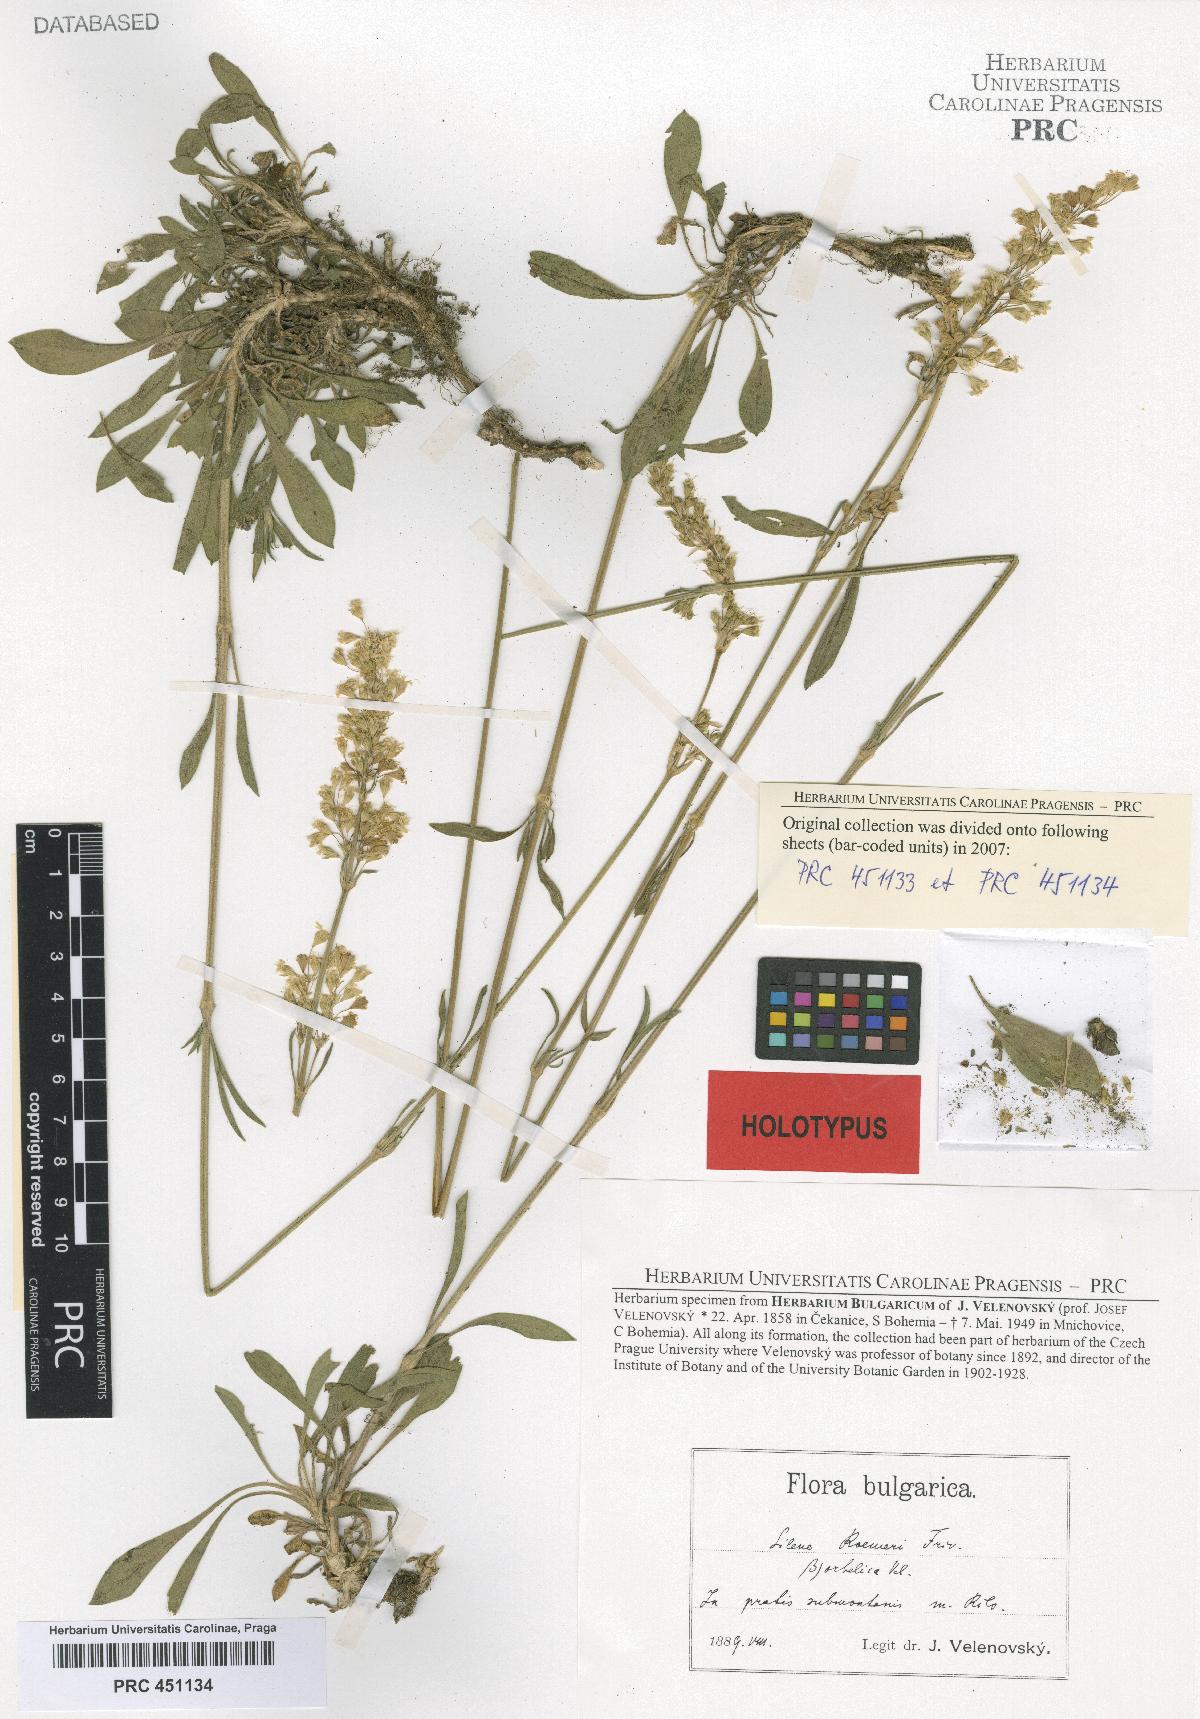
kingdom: Plantae
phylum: Tracheophyta
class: Magnoliopsida
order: Caryophyllales
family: Caryophyllaceae
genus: Silene
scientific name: Silene roemeri
